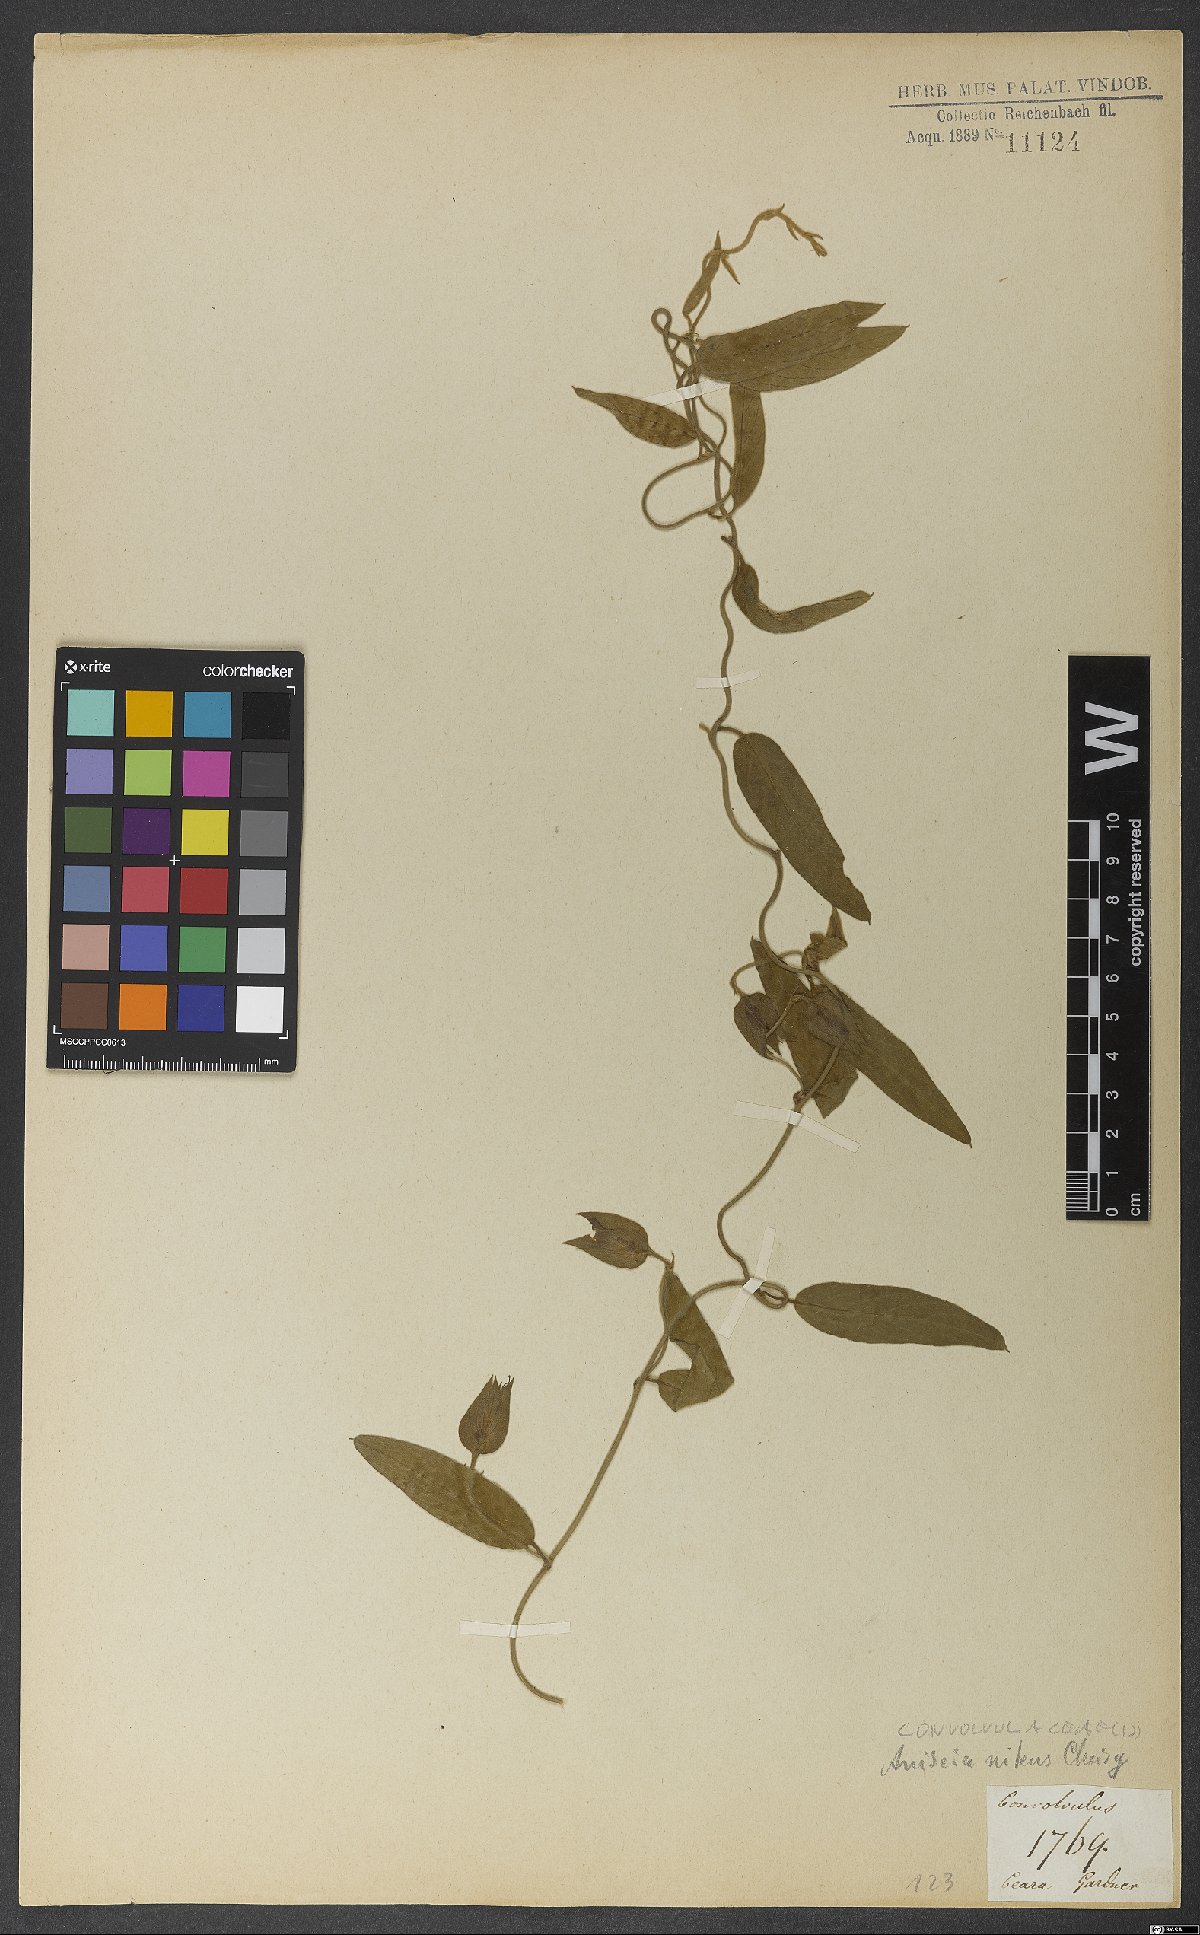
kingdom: Plantae
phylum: Tracheophyta
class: Magnoliopsida
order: Solanales
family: Convolvulaceae
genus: Aniseia
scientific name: Aniseia martinicensis
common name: Kulayadambu
